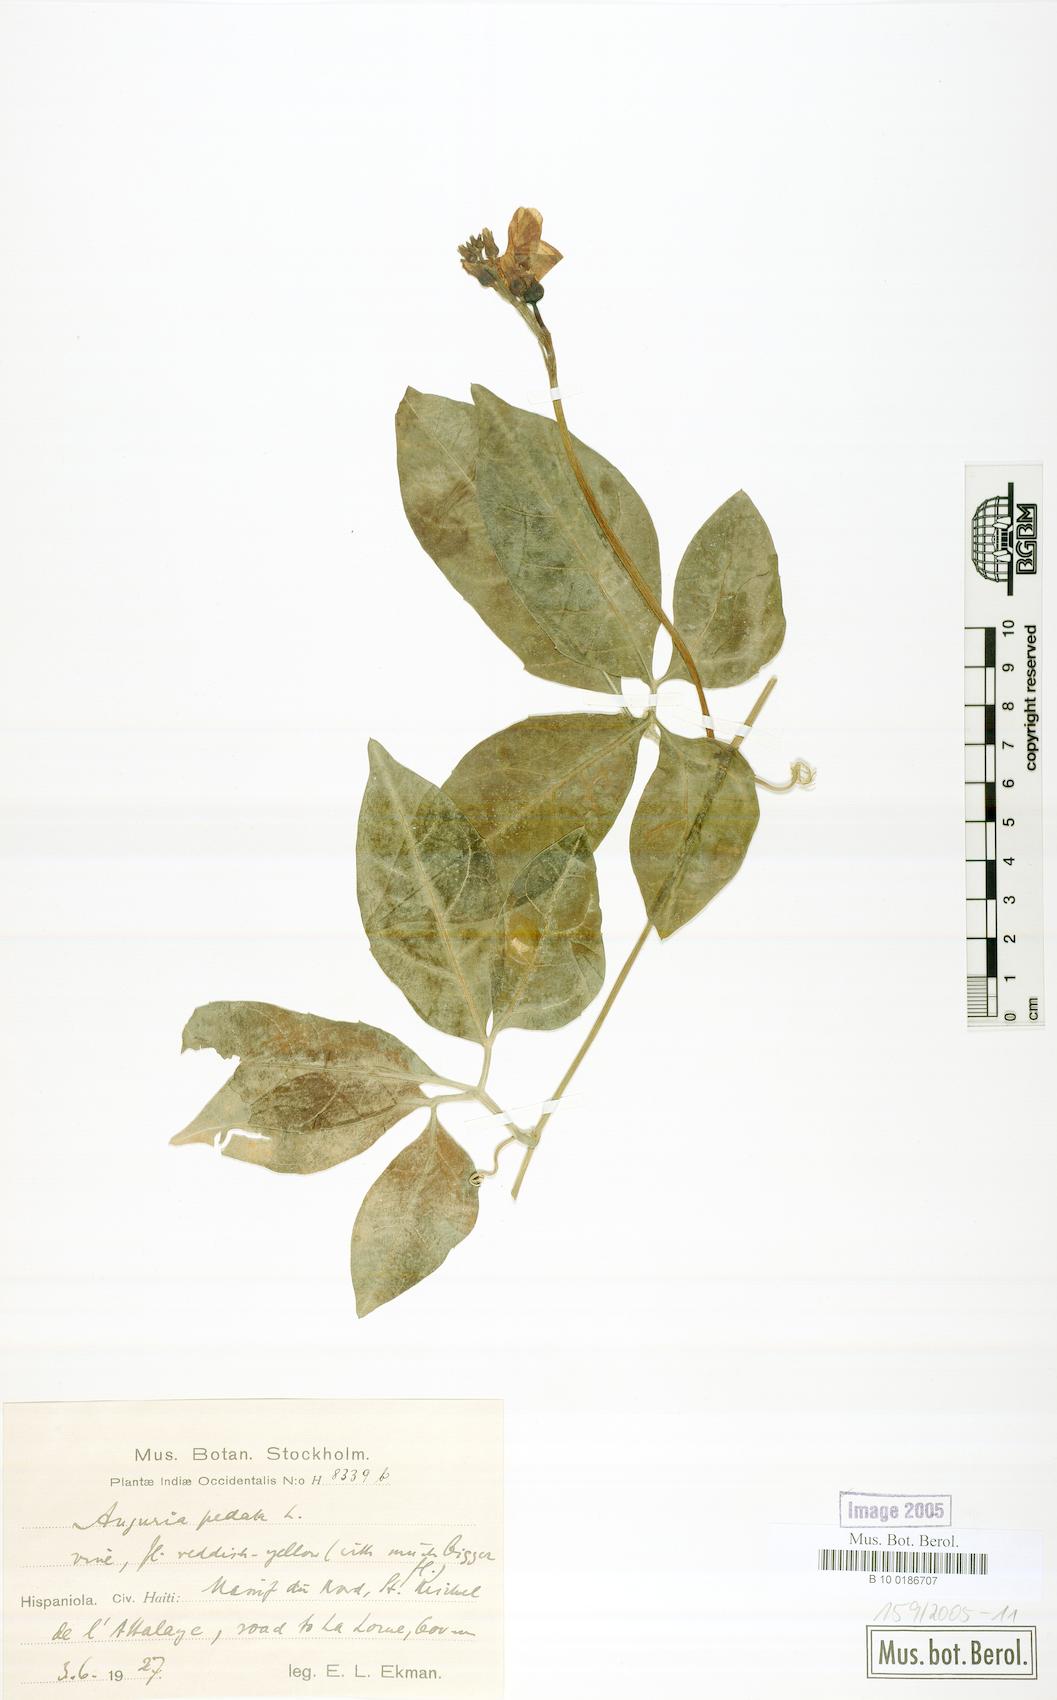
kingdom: Plantae
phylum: Tracheophyta
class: Magnoliopsida
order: Cucurbitales
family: Cucurbitaceae
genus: Gurania
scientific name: Gurania pedata
